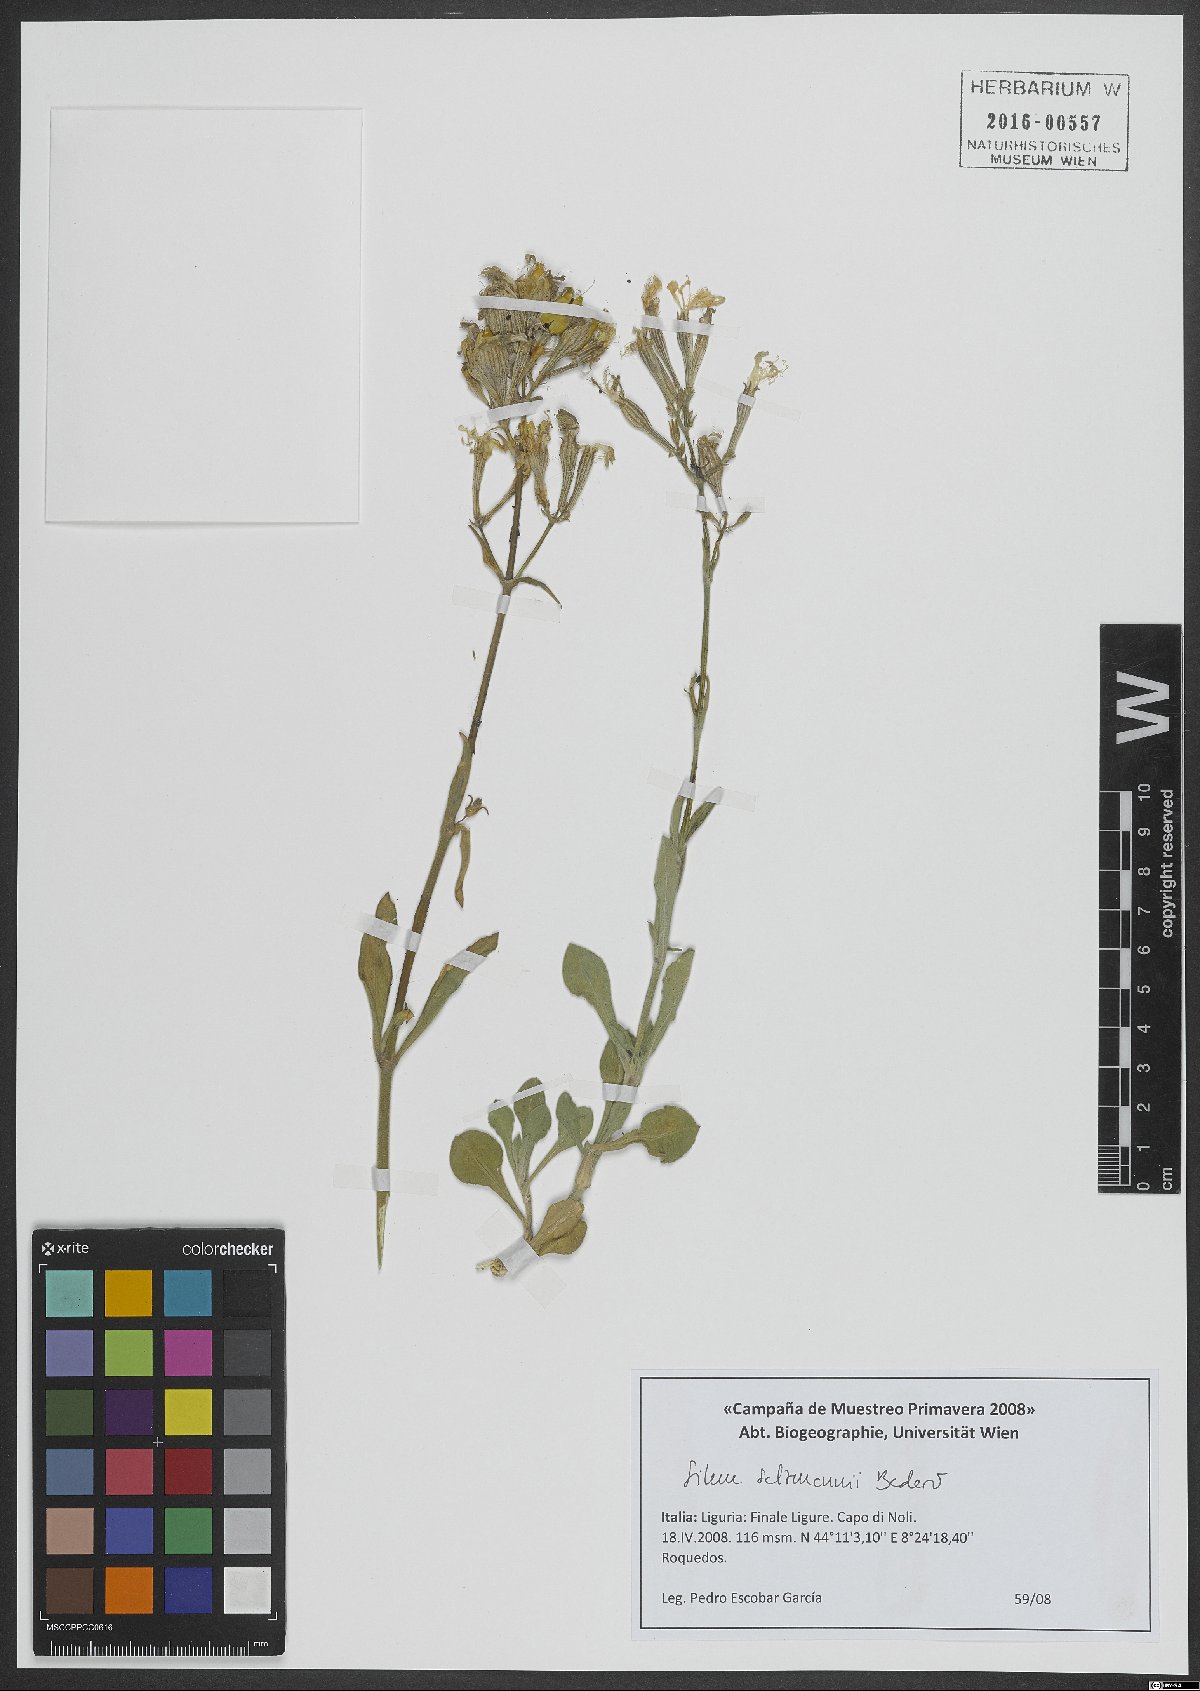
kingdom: Plantae
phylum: Tracheophyta
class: Magnoliopsida
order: Caryophyllales
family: Caryophyllaceae
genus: Silene
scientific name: Silene badaroi
